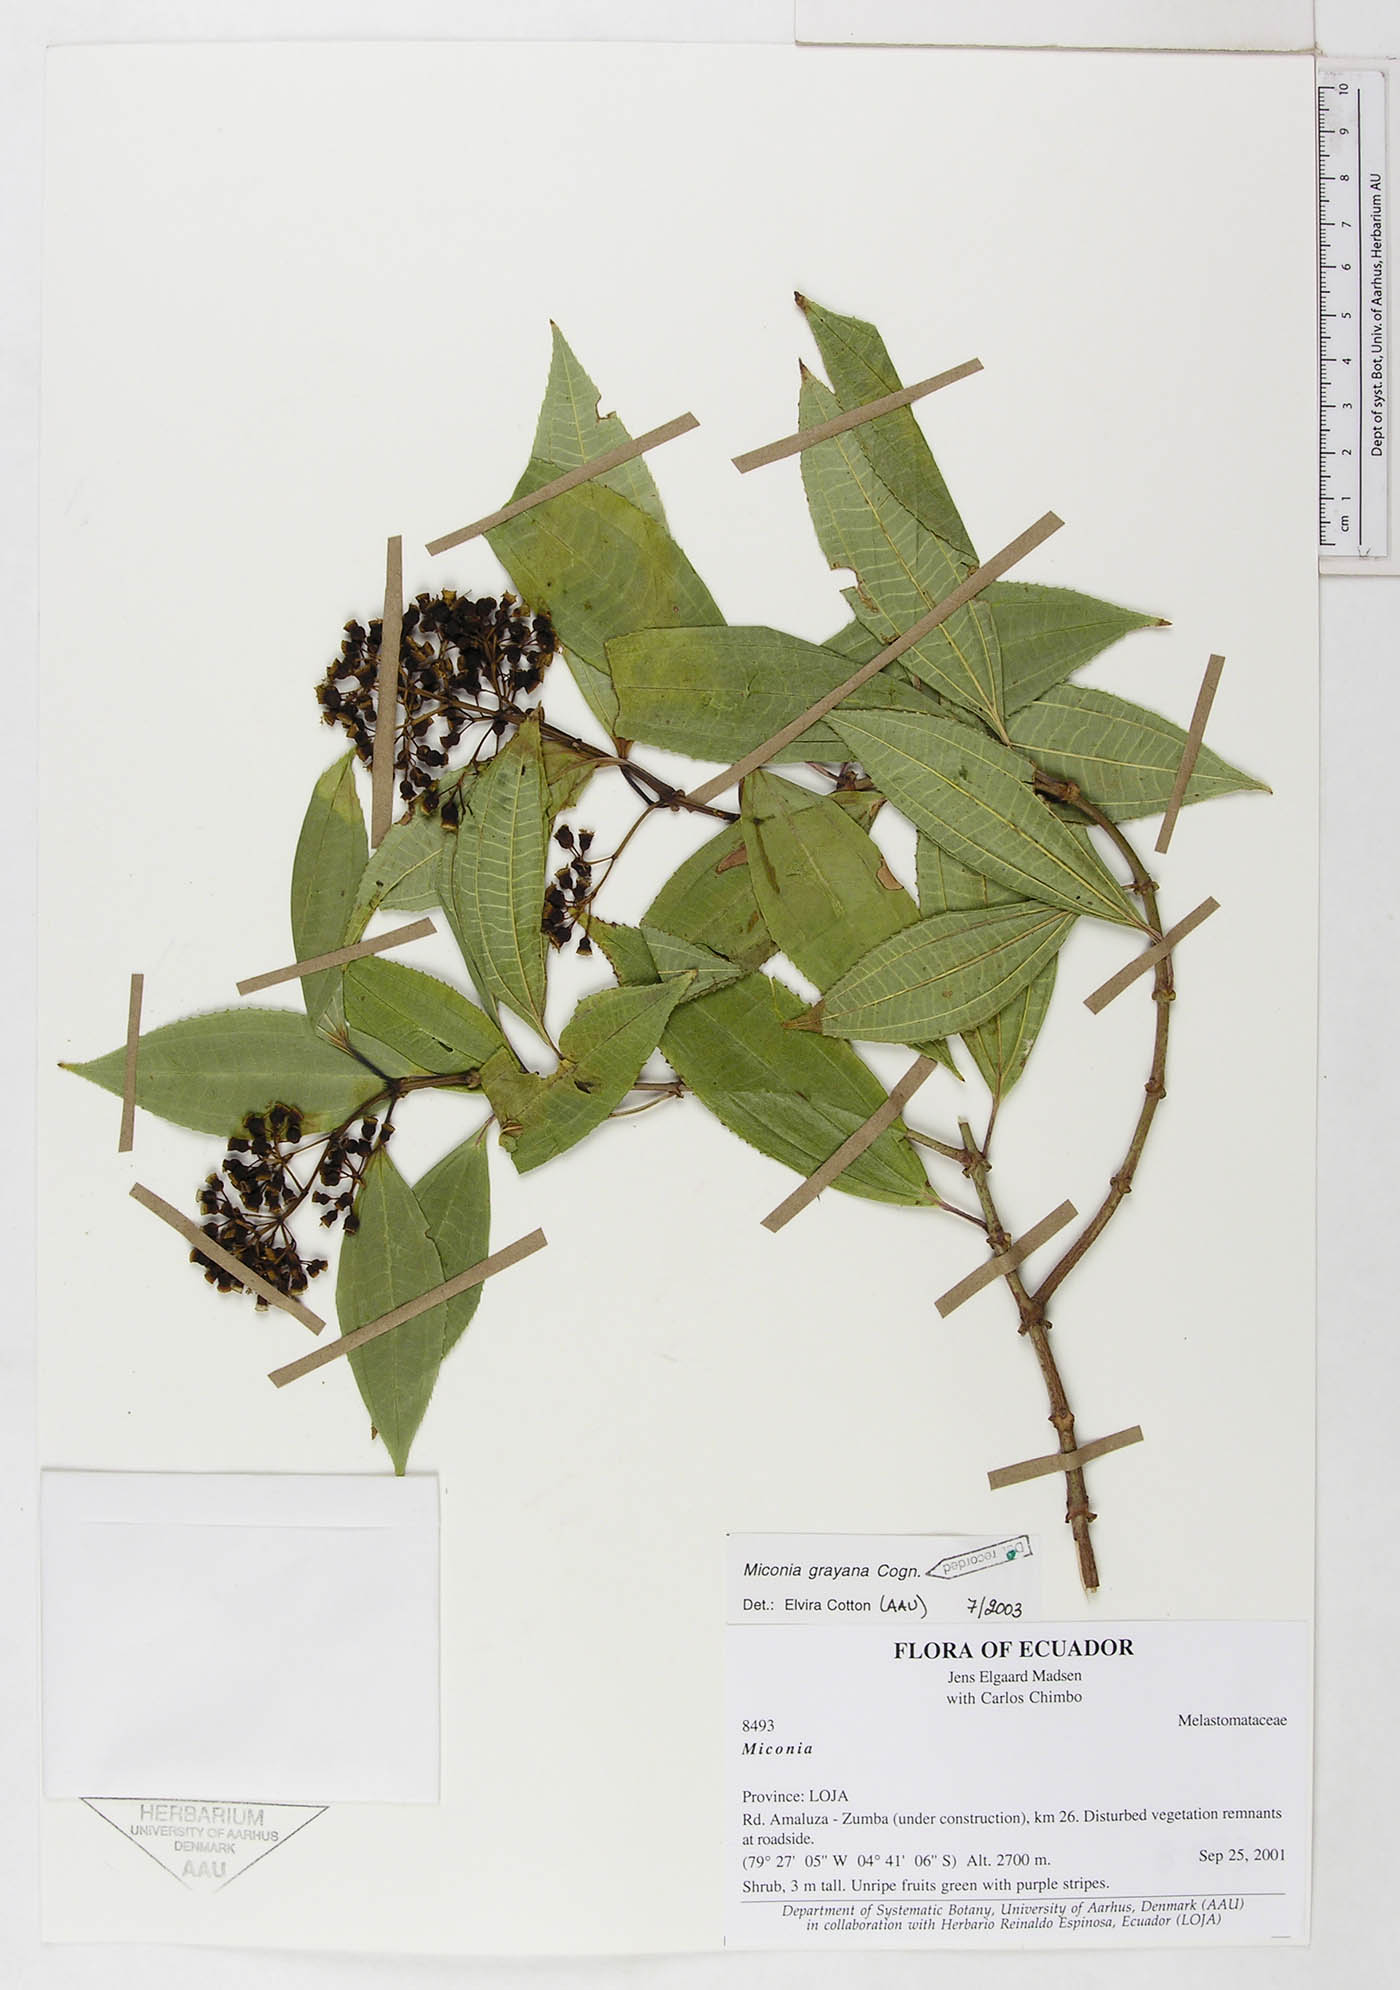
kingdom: Plantae
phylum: Tracheophyta
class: Magnoliopsida
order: Myrtales
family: Melastomataceae
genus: Miconia
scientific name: Miconia grayana
